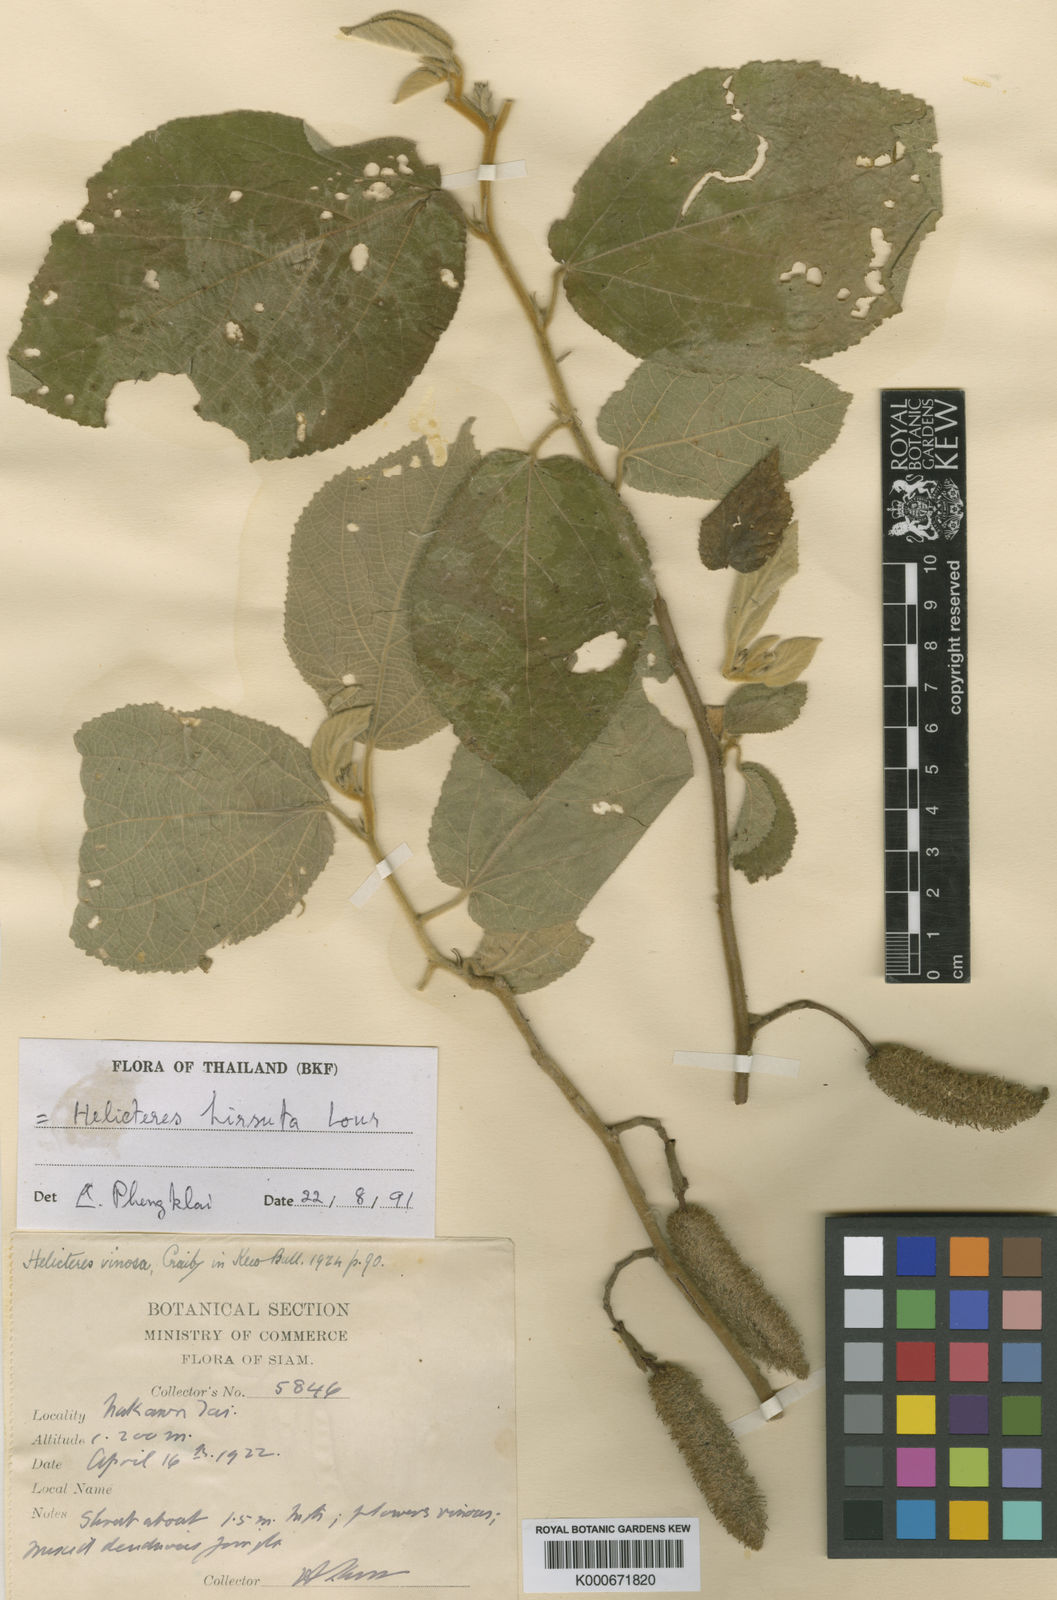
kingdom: Plantae
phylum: Tracheophyta
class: Magnoliopsida
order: Malvales
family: Malvaceae
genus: Helicteres
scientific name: Helicteres hirsuta
